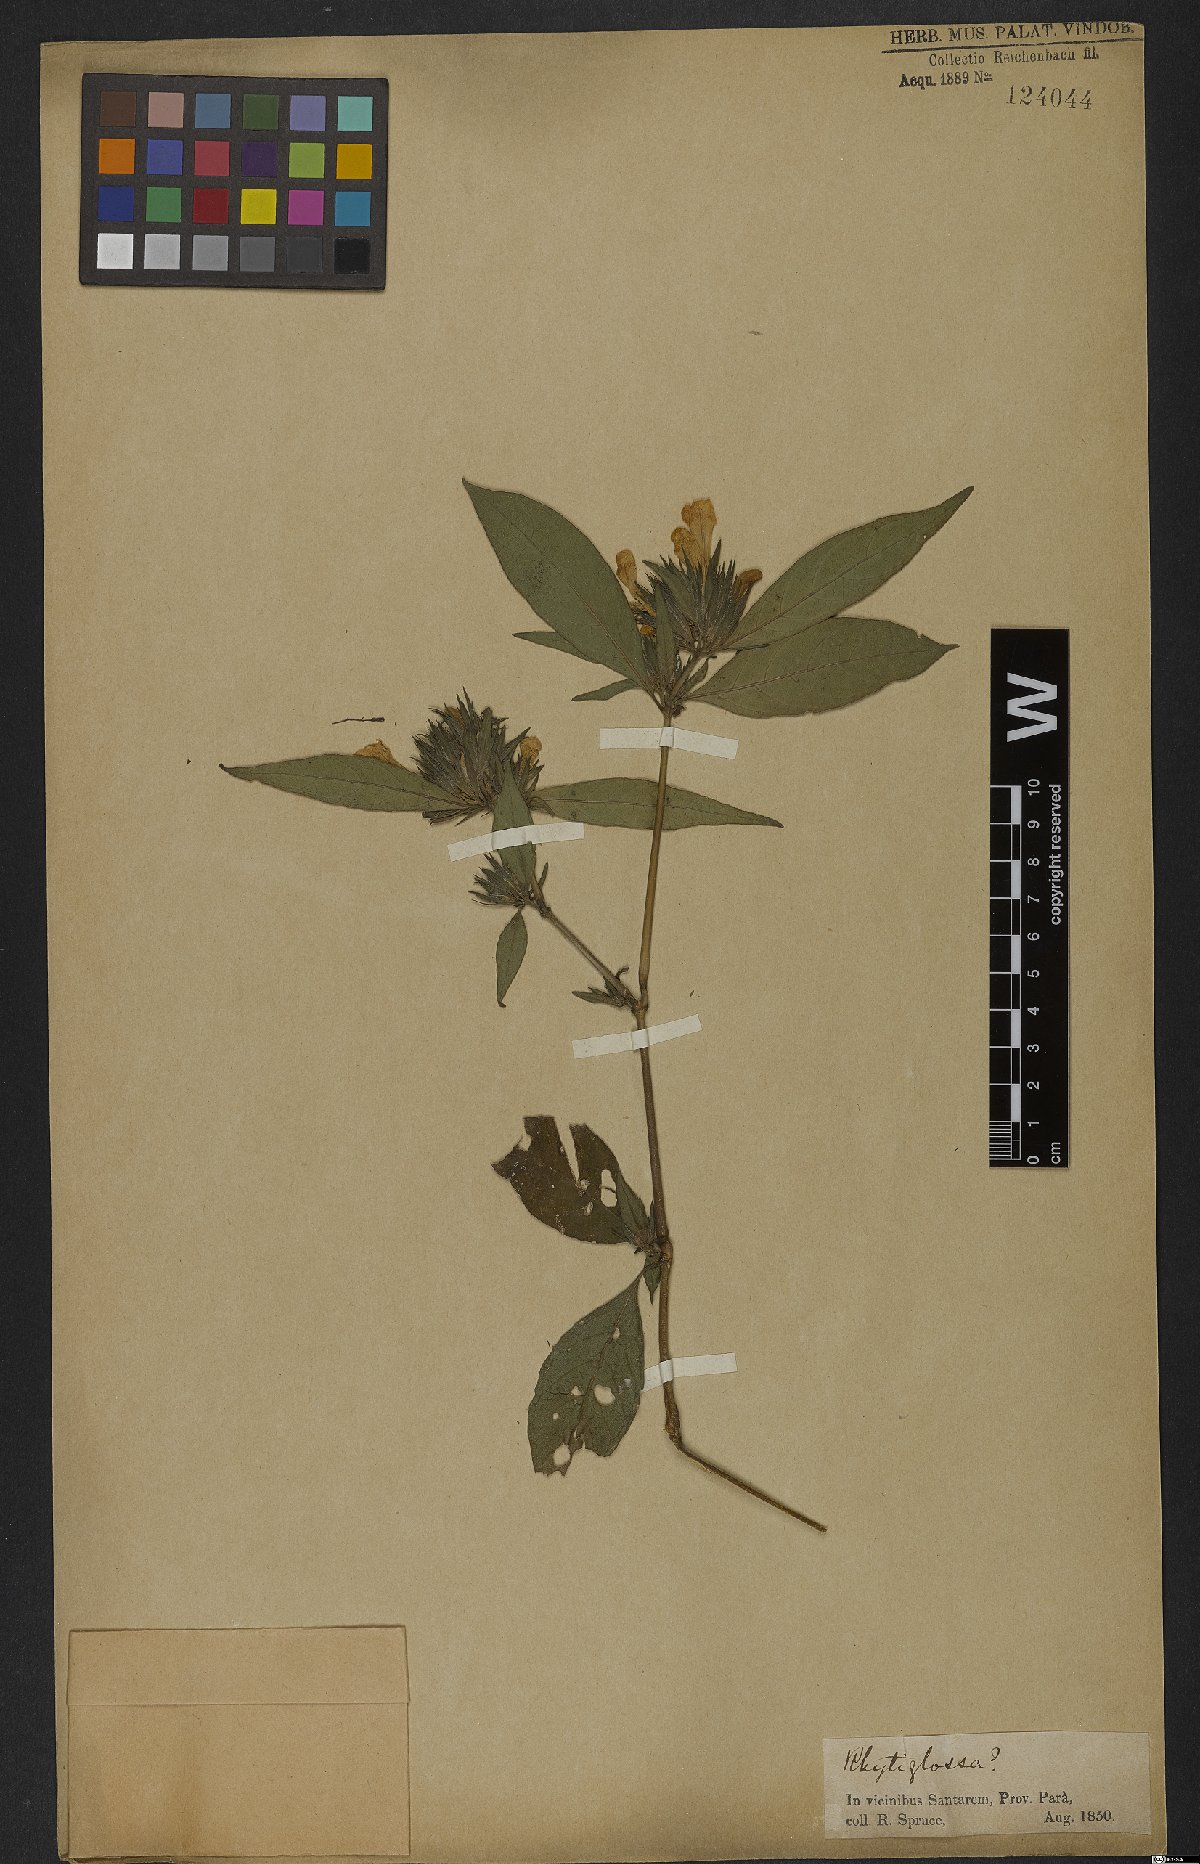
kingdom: Plantae
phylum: Tracheophyta
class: Magnoliopsida
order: Lamiales
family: Acanthaceae
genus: Justicia
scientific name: Justicia
